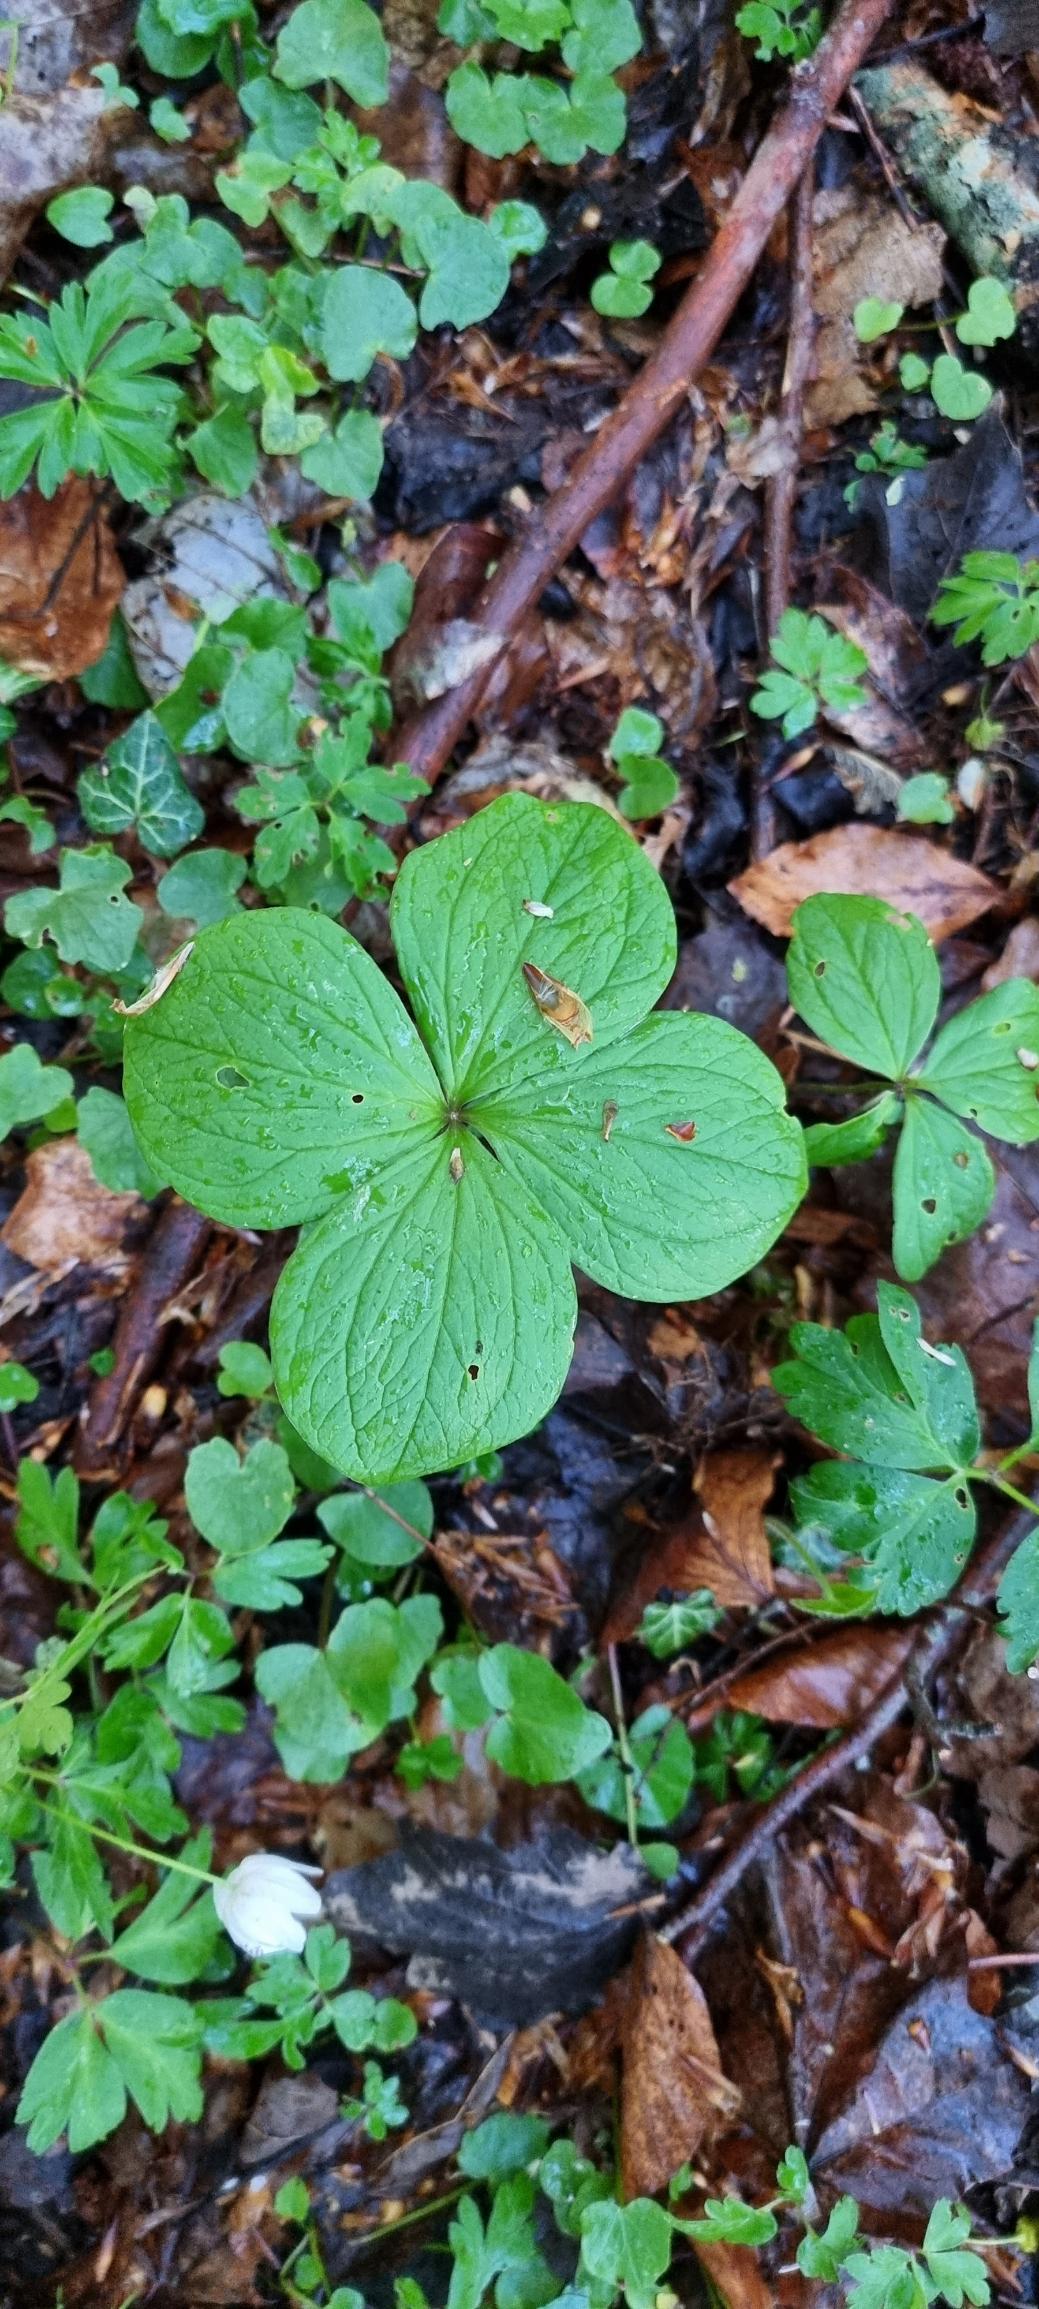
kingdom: Plantae
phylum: Tracheophyta
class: Liliopsida
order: Liliales
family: Melanthiaceae
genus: Paris
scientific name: Paris quadrifolia
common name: Firblad
